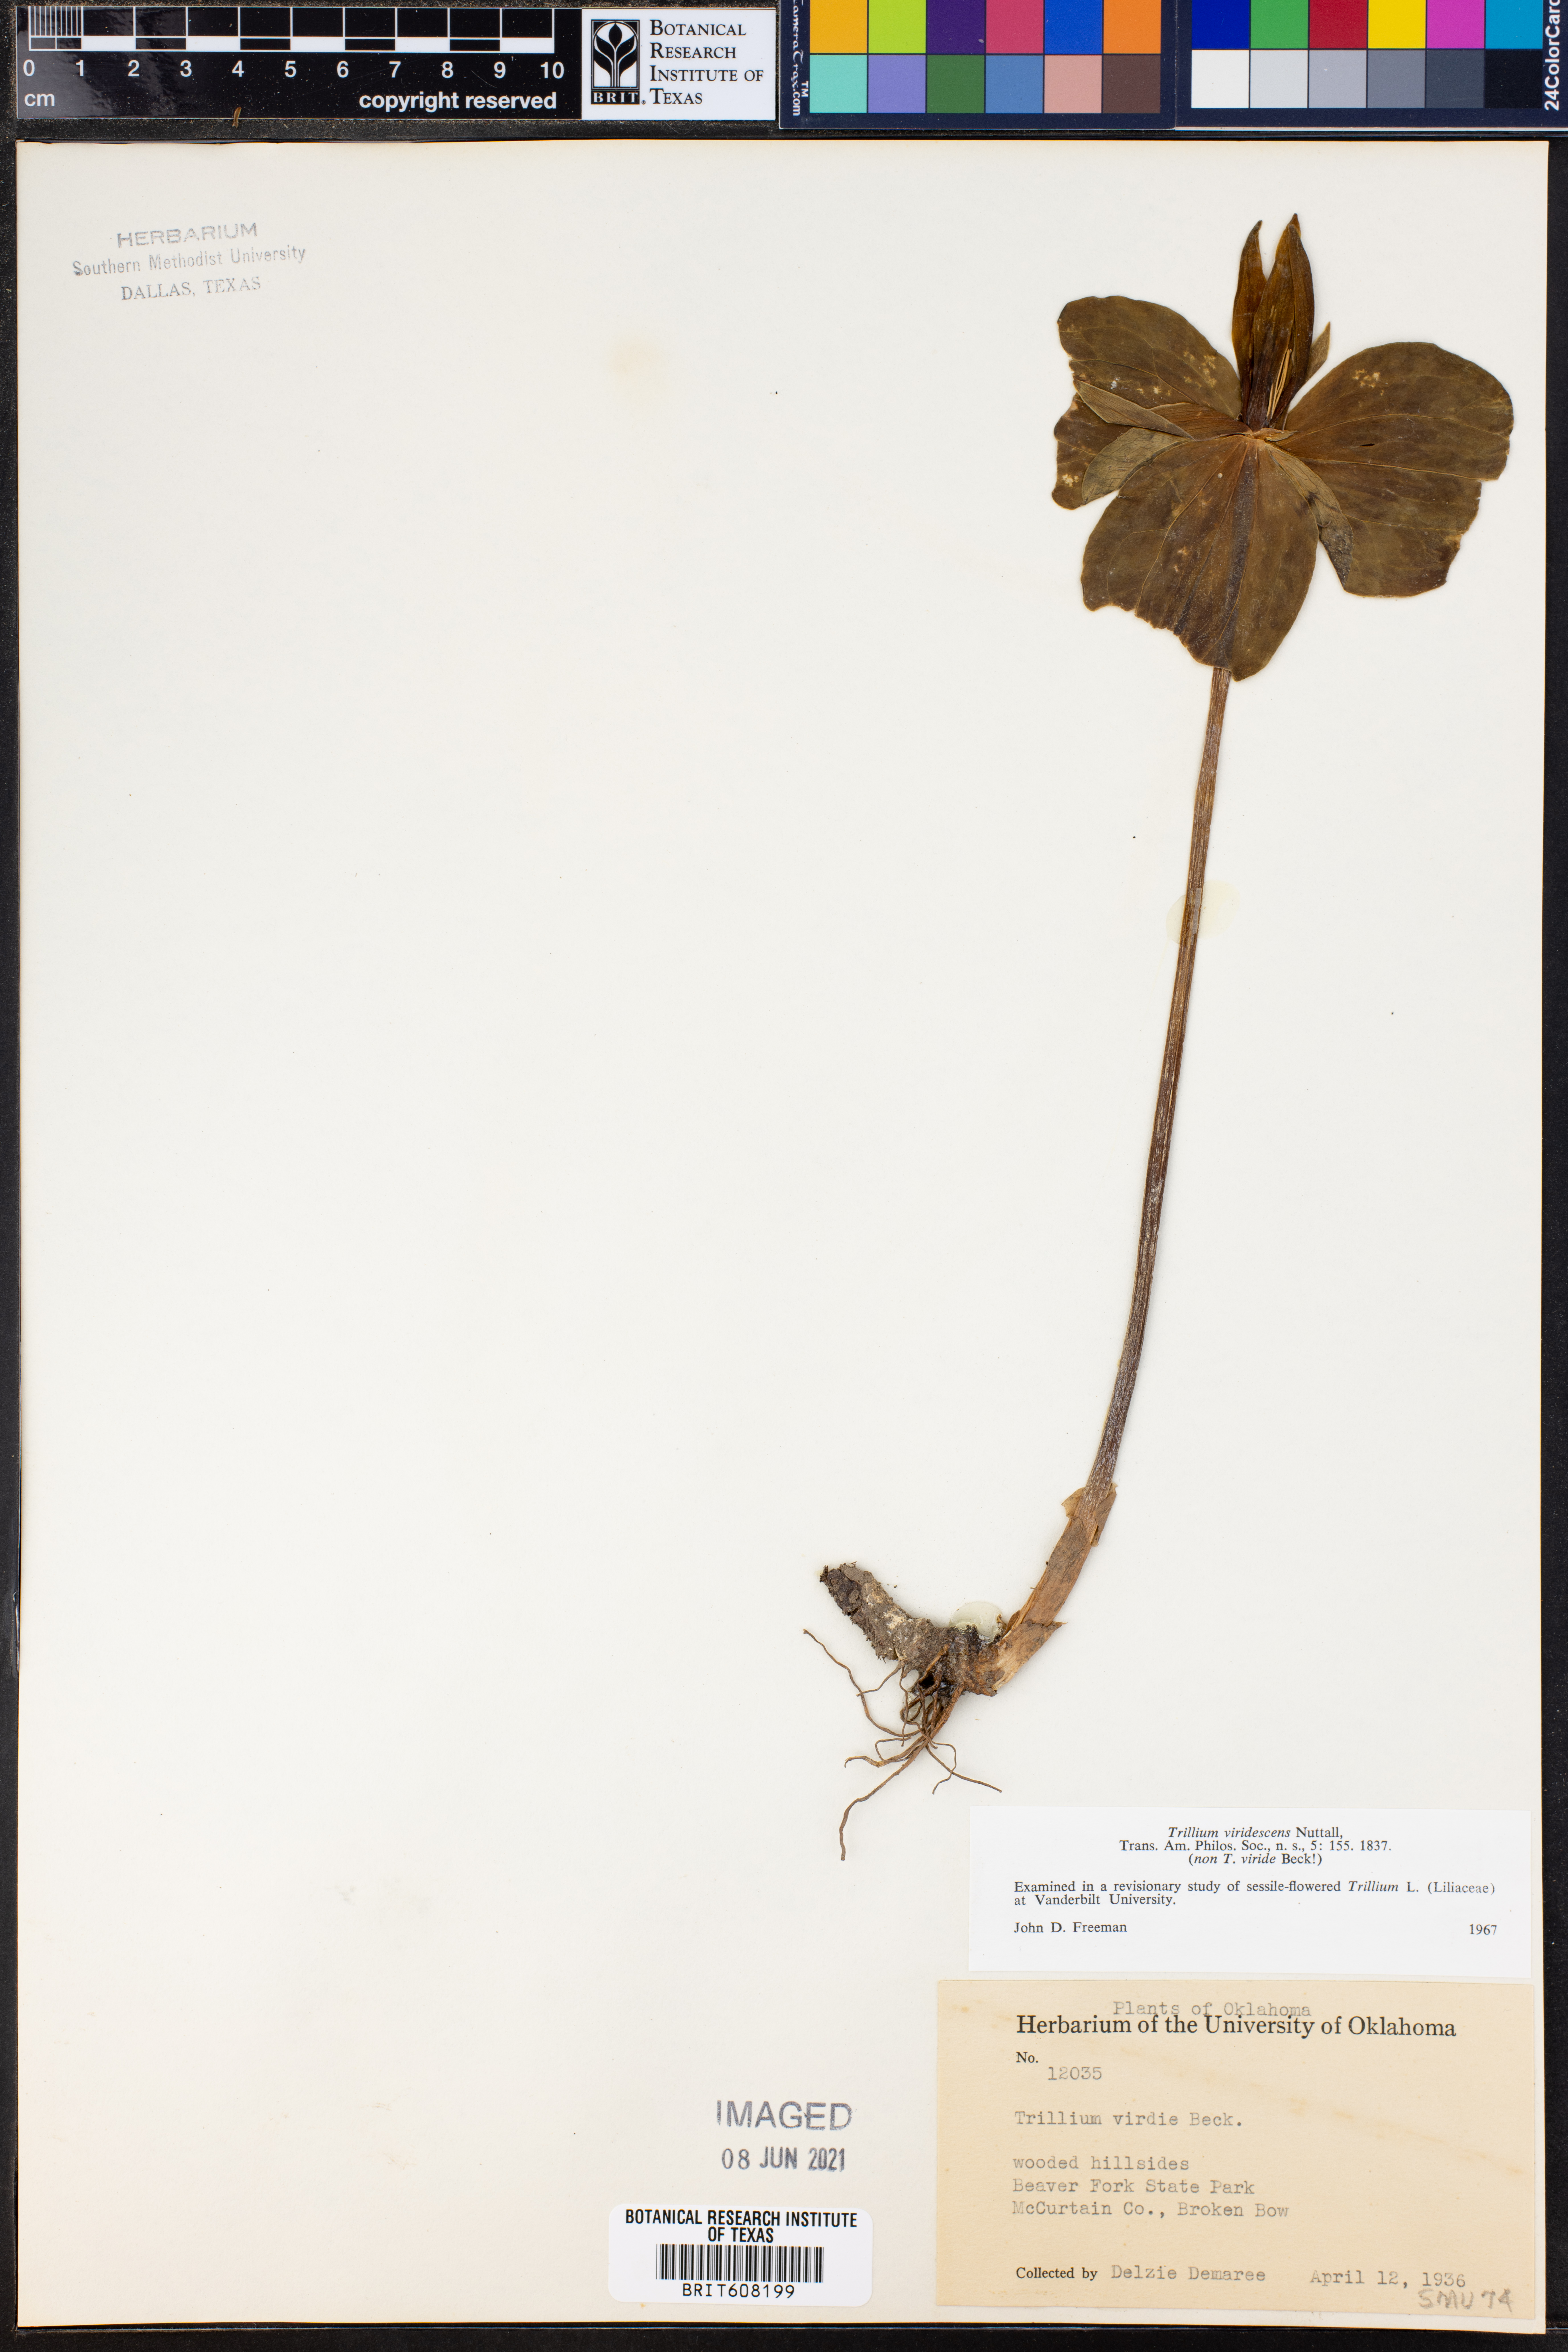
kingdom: Plantae
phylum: Tracheophyta
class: Liliopsida
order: Liliales
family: Melanthiaceae
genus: Trillium
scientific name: Trillium viridescens
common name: Ozark green trillium
